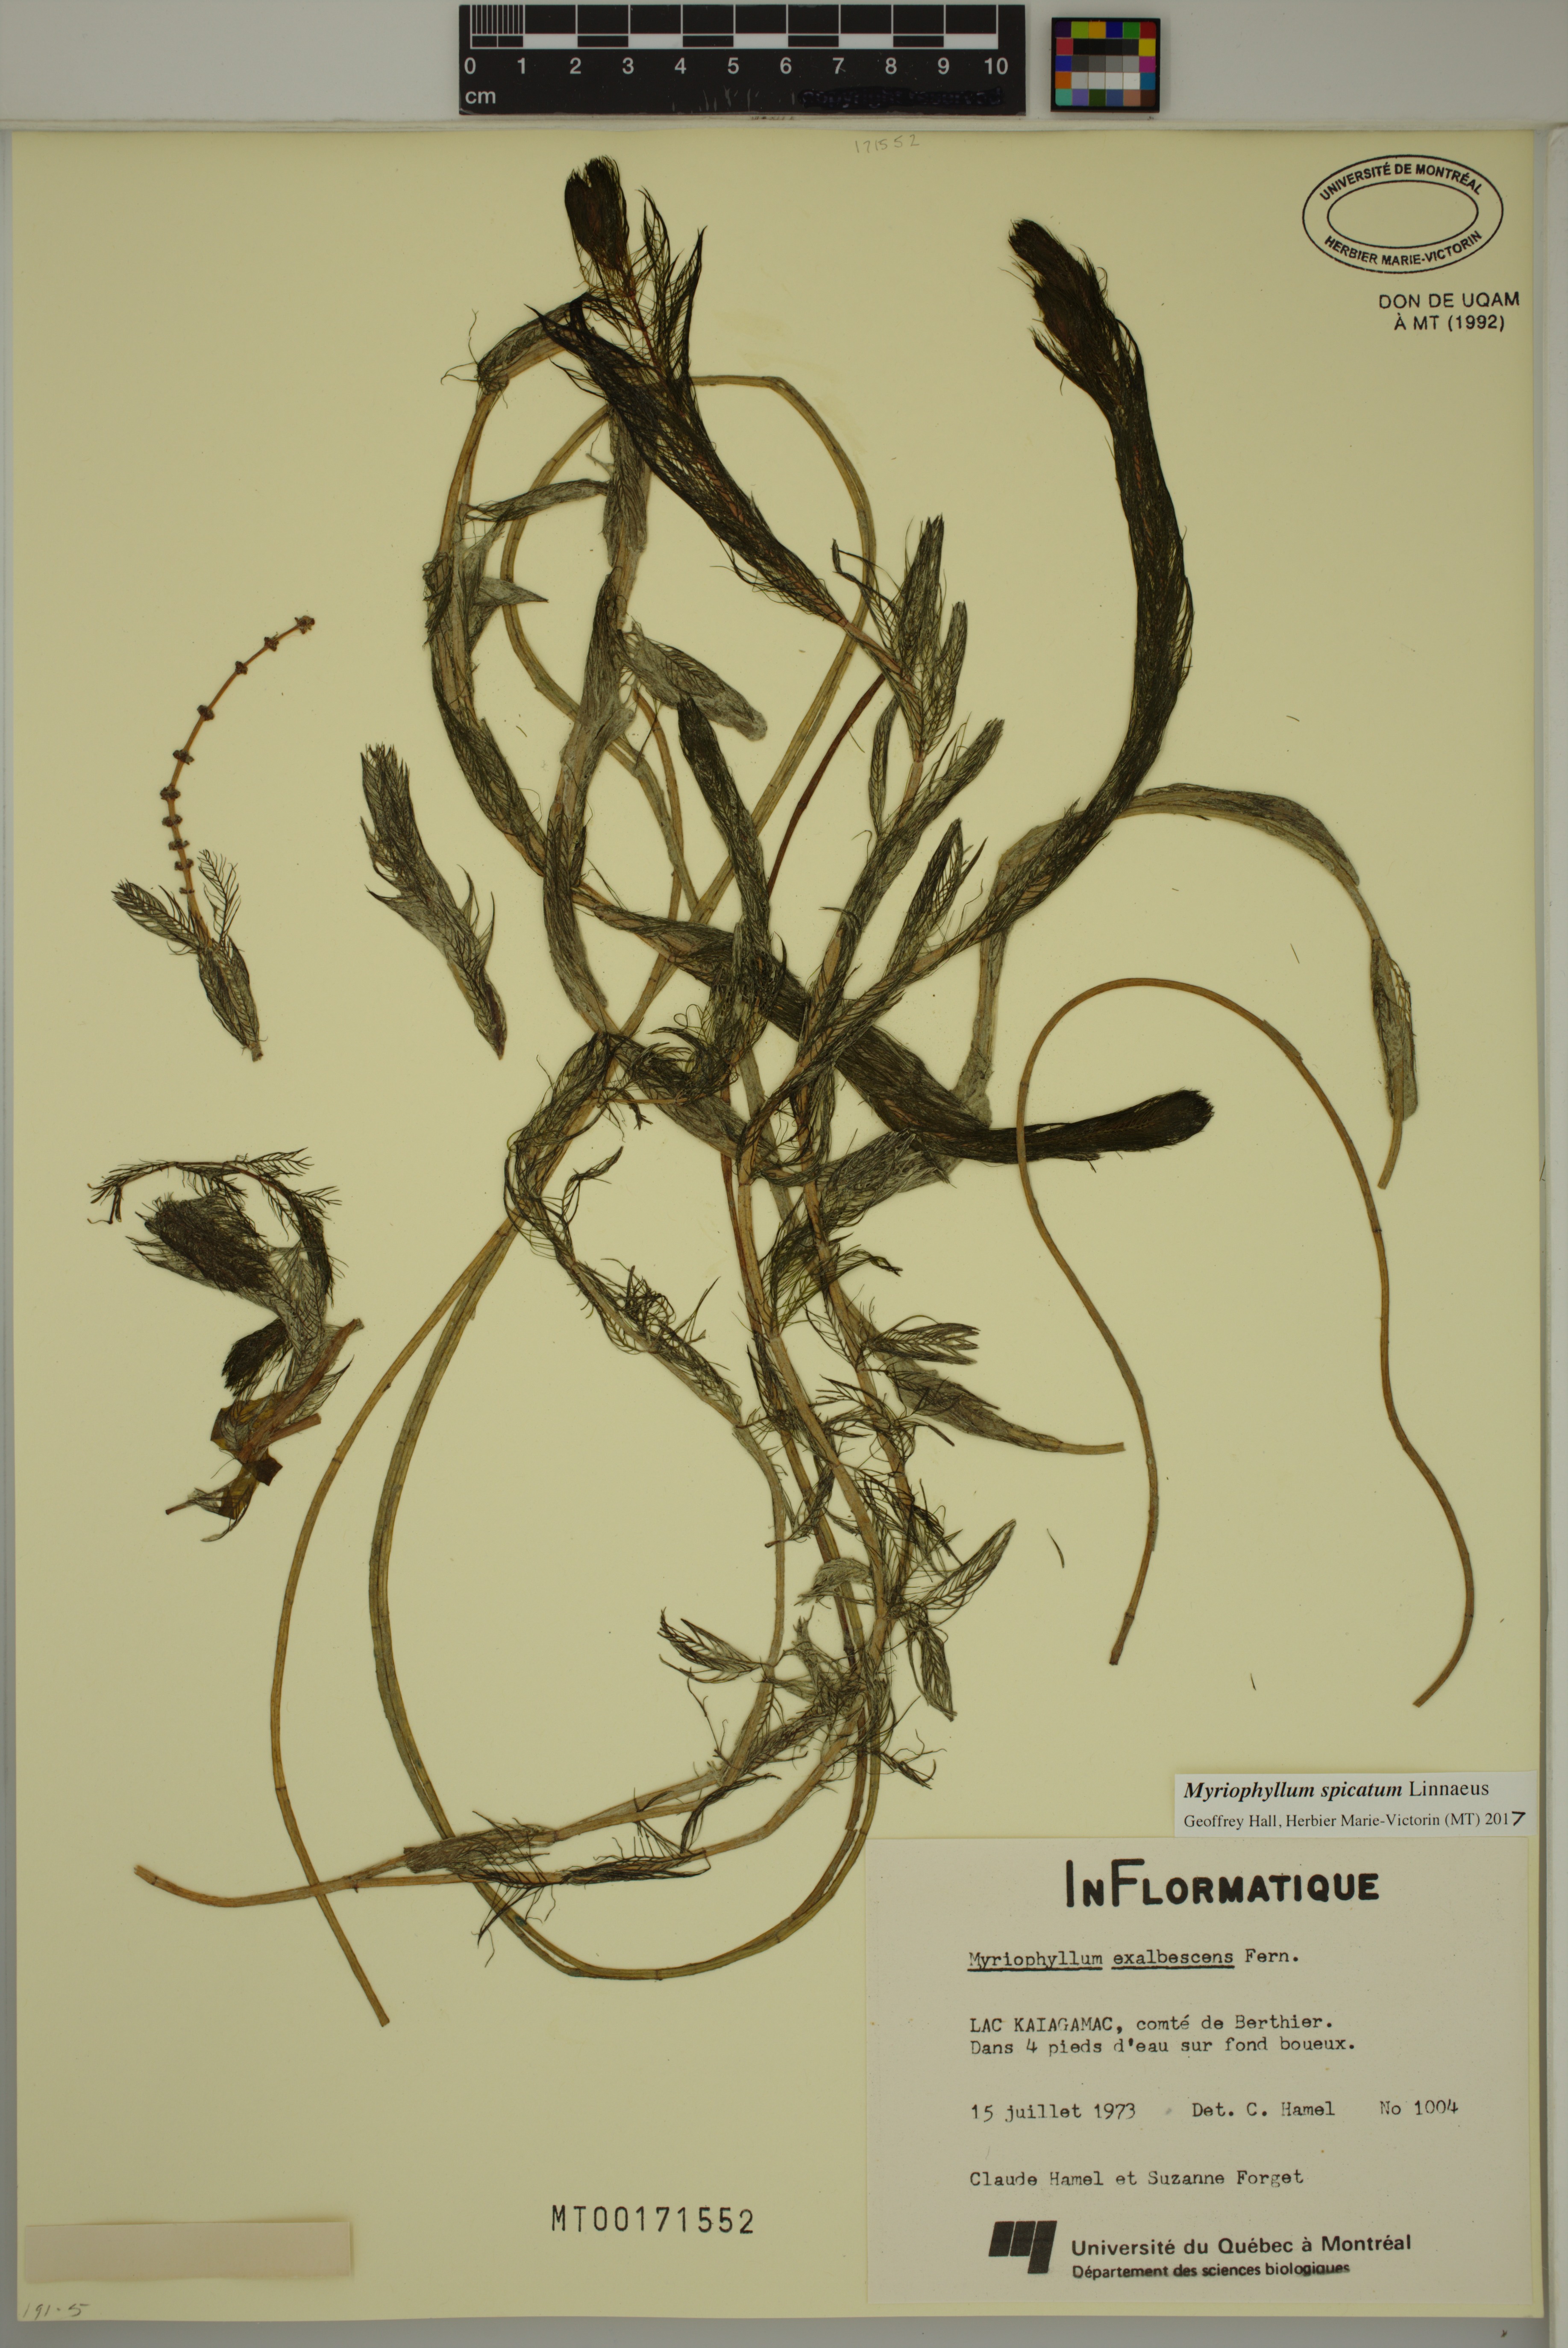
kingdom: Plantae
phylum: Tracheophyta
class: Magnoliopsida
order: Saxifragales
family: Haloragaceae
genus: Myriophyllum
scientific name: Myriophyllum spicatum
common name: Spiked water-milfoil
